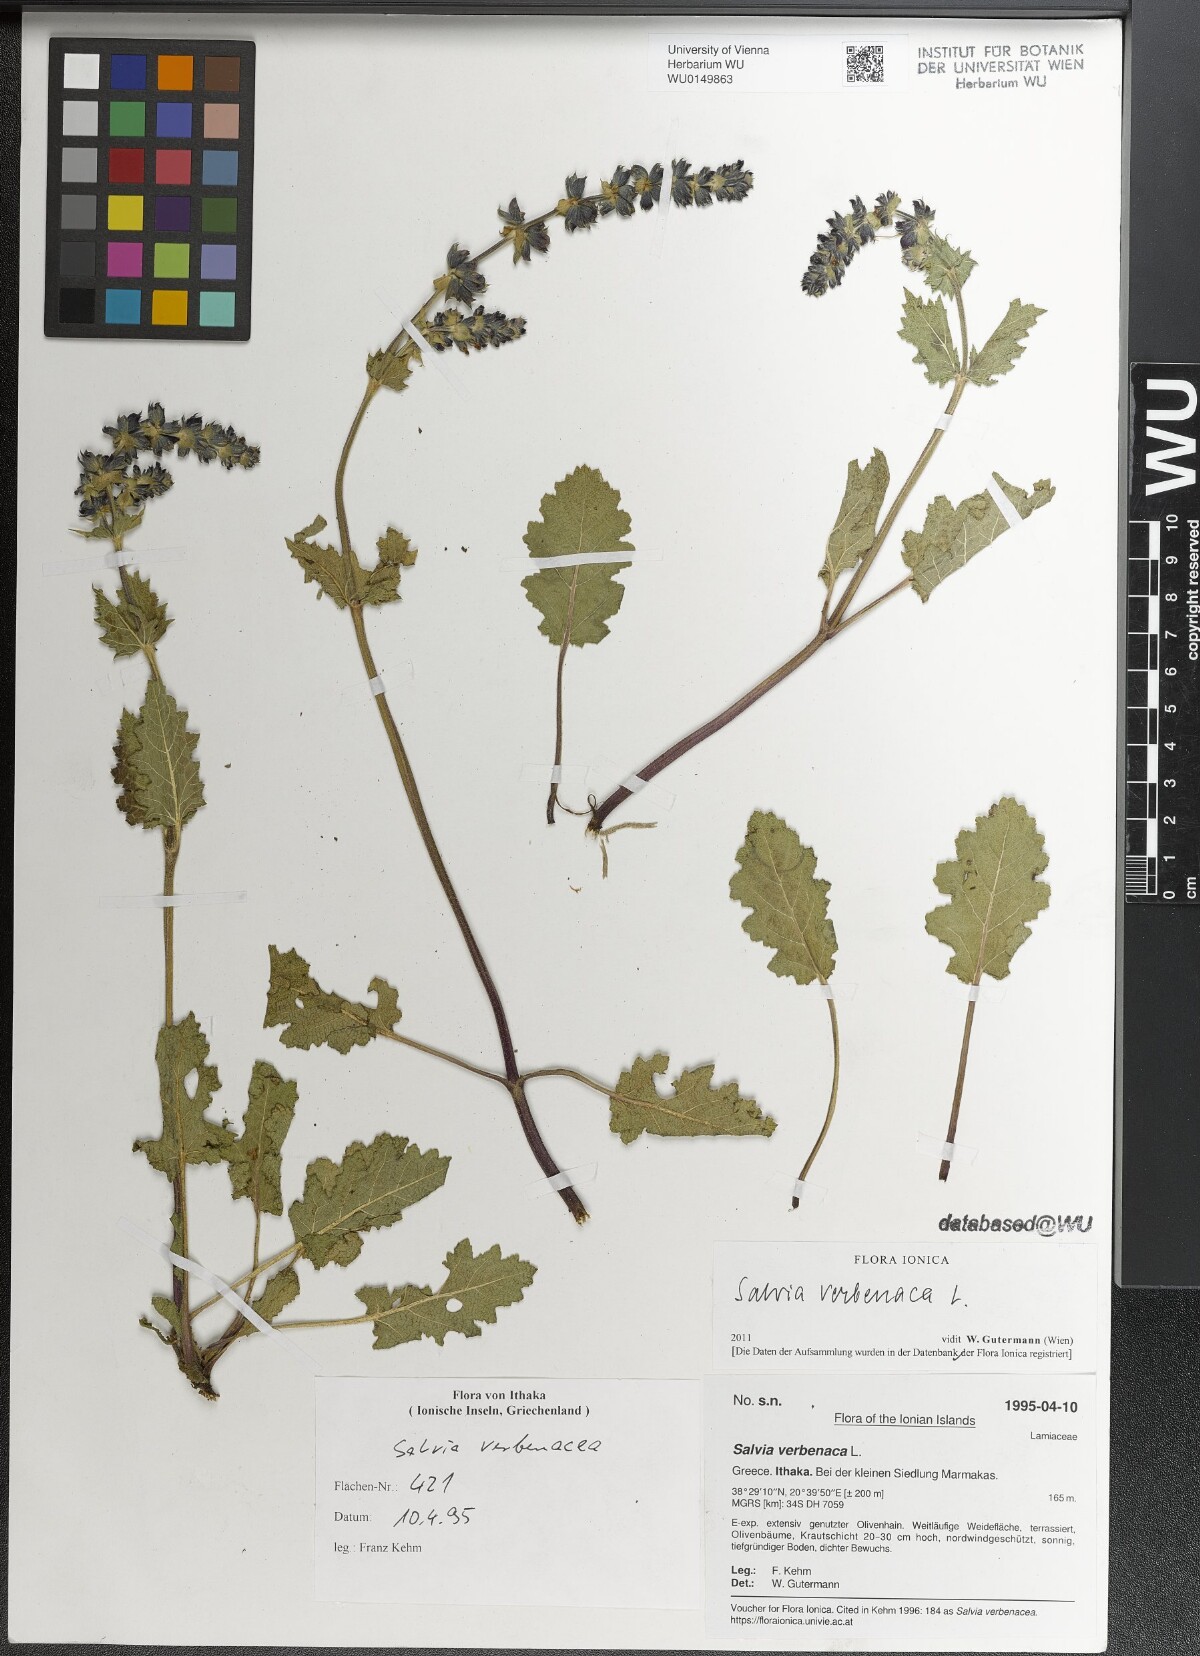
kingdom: Plantae
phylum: Tracheophyta
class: Magnoliopsida
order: Lamiales
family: Lamiaceae
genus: Salvia
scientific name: Salvia verbenaca
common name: Wild clary
